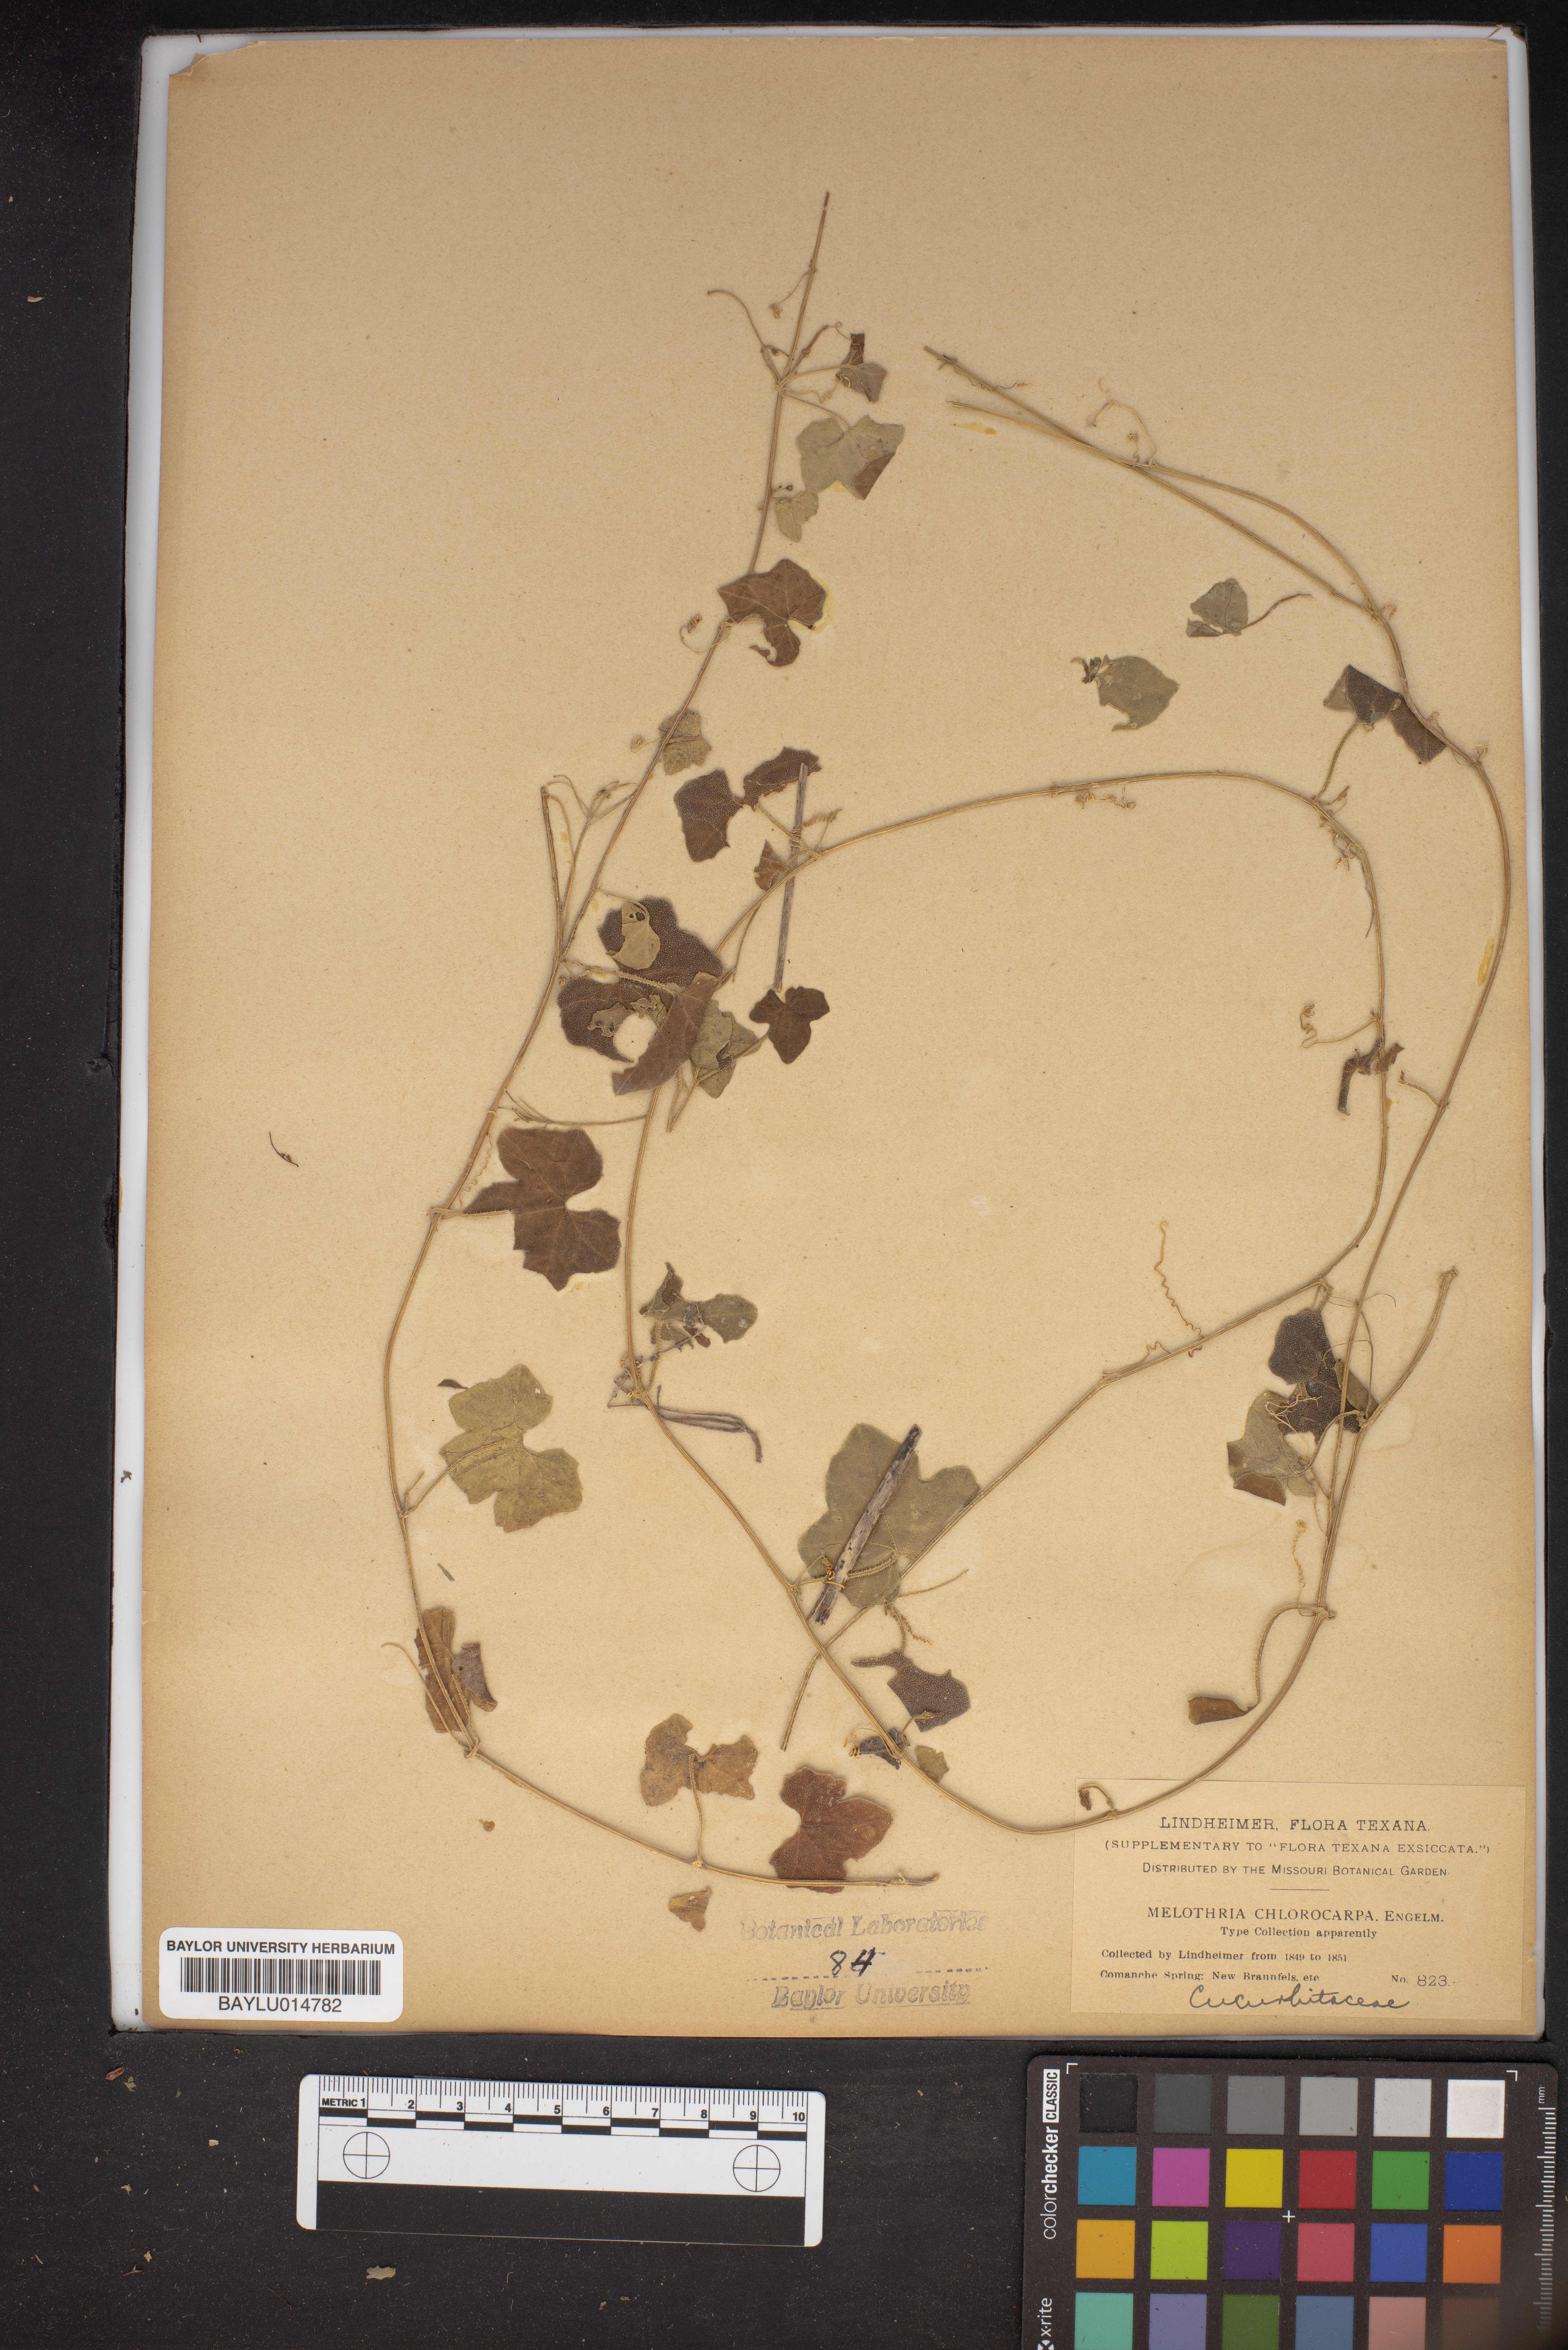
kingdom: Plantae
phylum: Tracheophyta
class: Magnoliopsida
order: Cucurbitales
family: Cucurbitaceae
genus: Melothria
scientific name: Melothria pendula
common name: Creeping-cucumber
